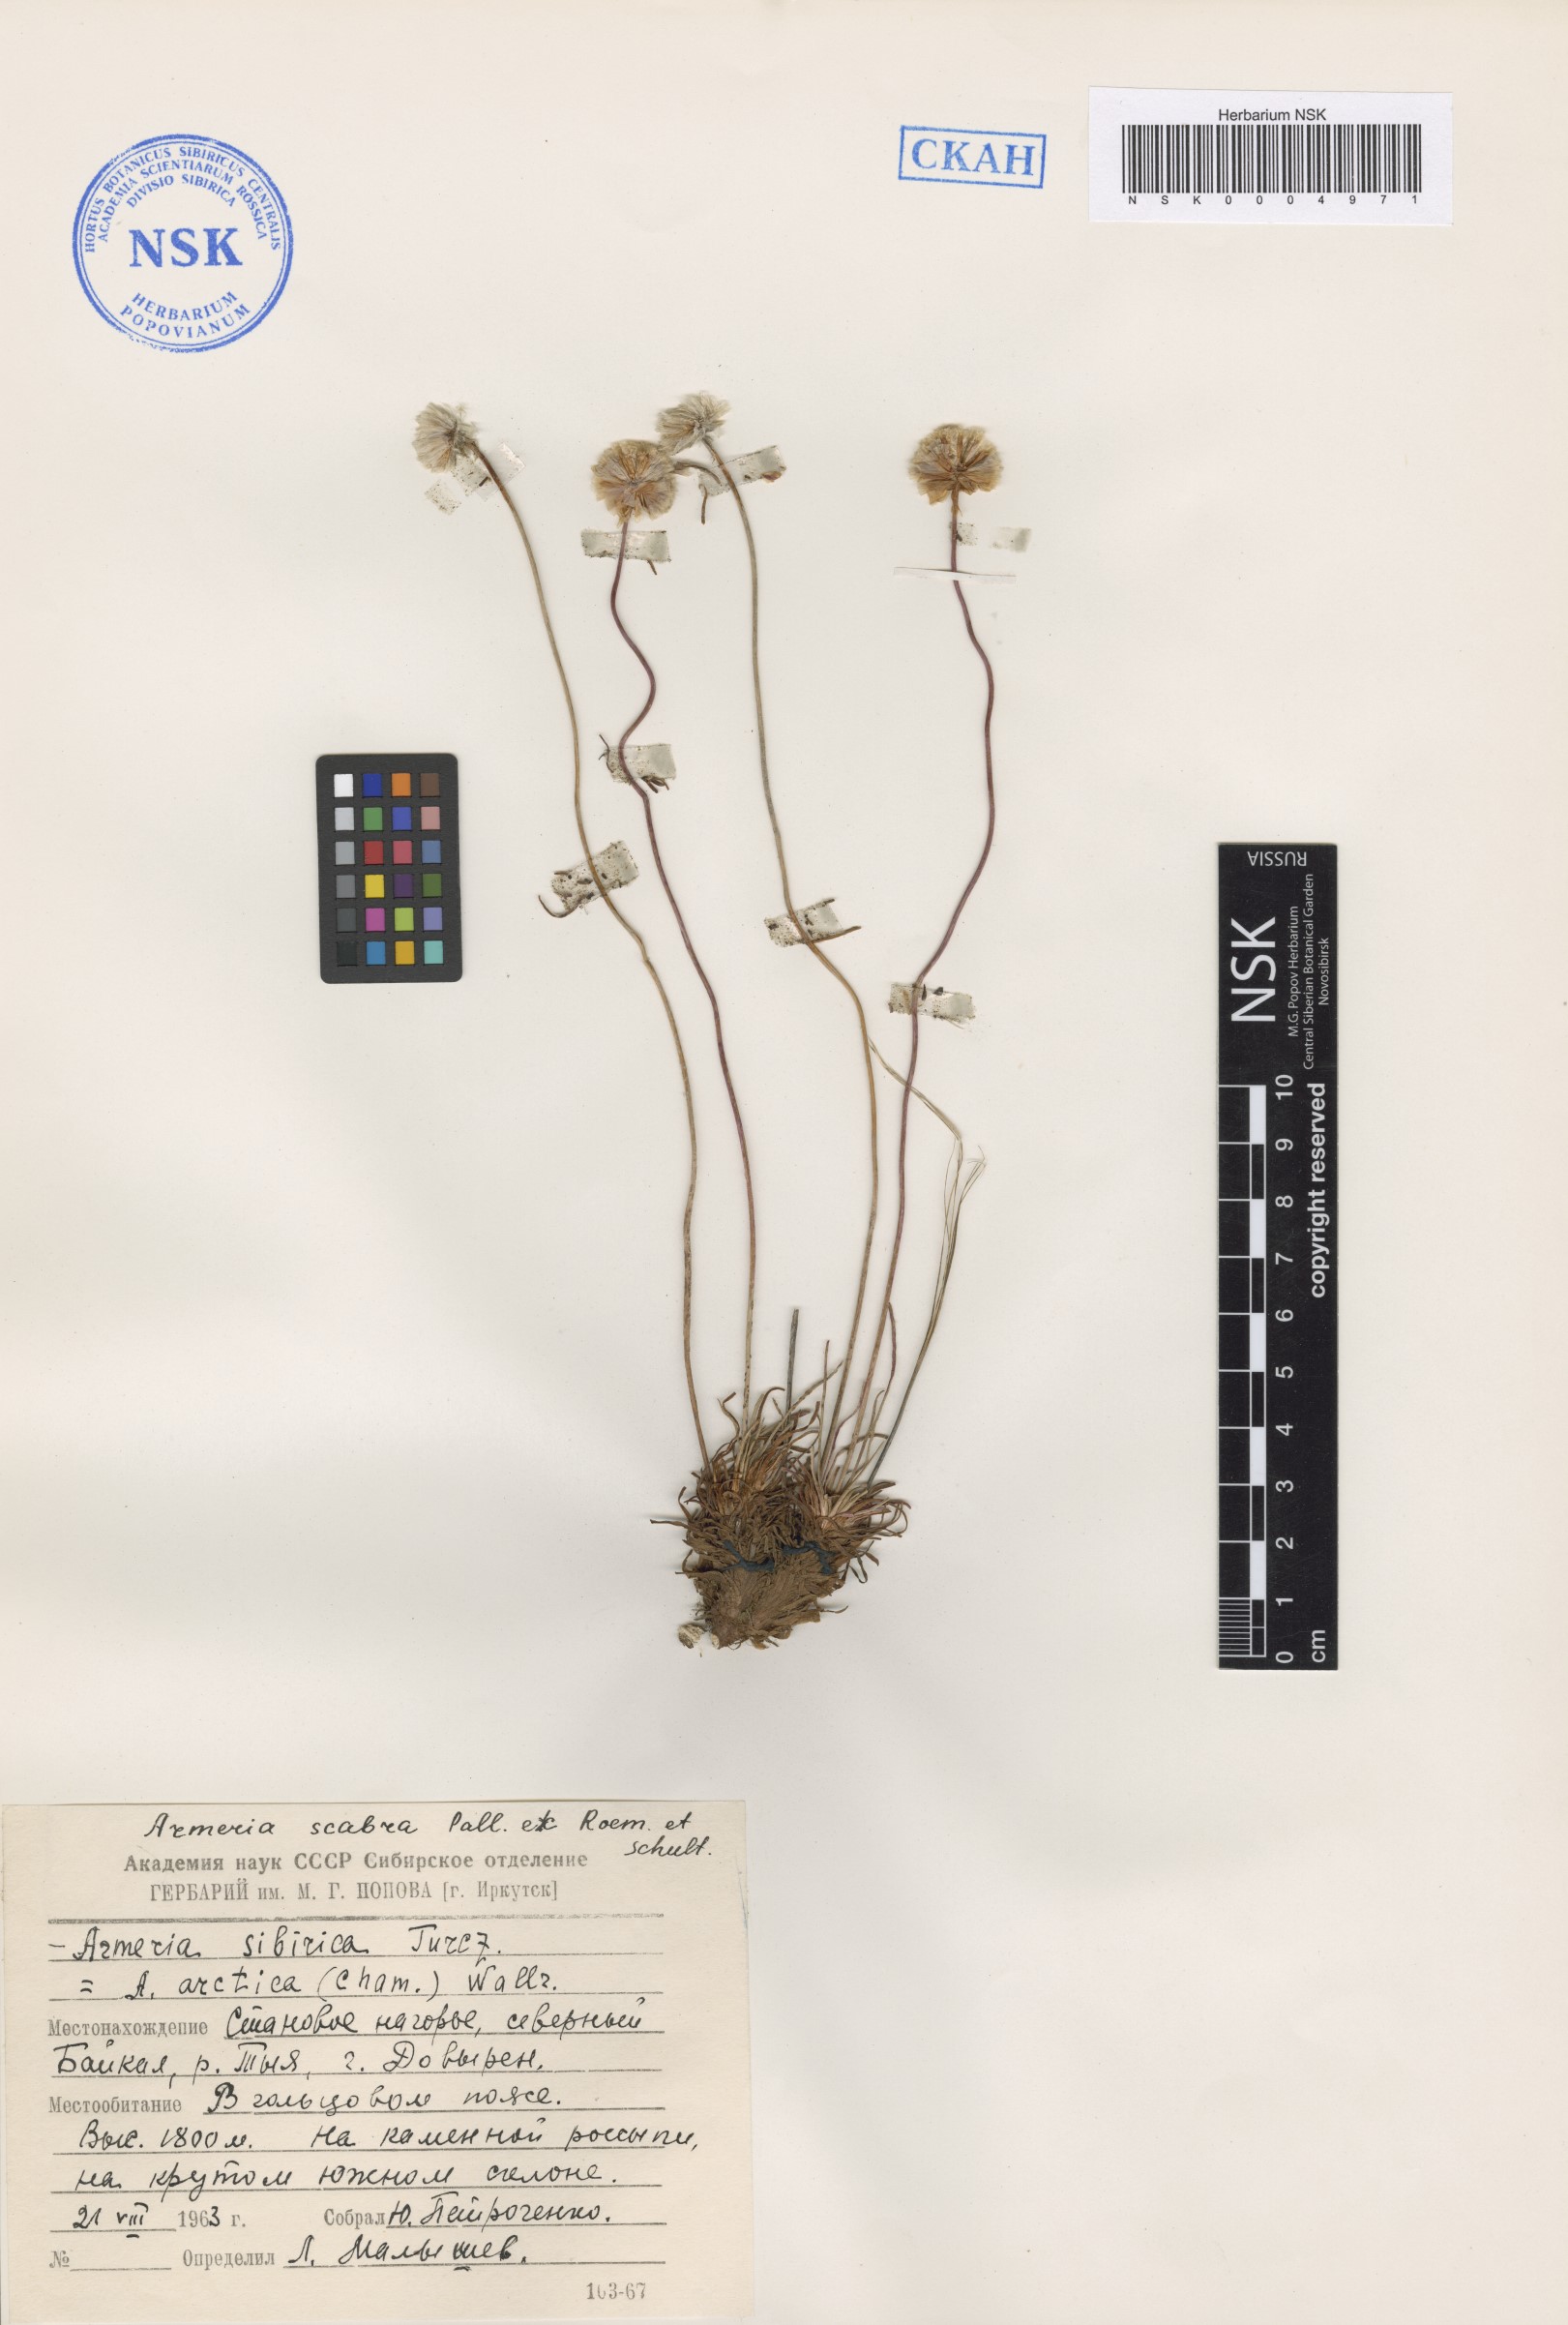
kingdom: Plantae
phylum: Tracheophyta
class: Magnoliopsida
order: Caryophyllales
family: Plumbaginaceae
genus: Armeria
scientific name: Armeria maritima
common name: Thrift
